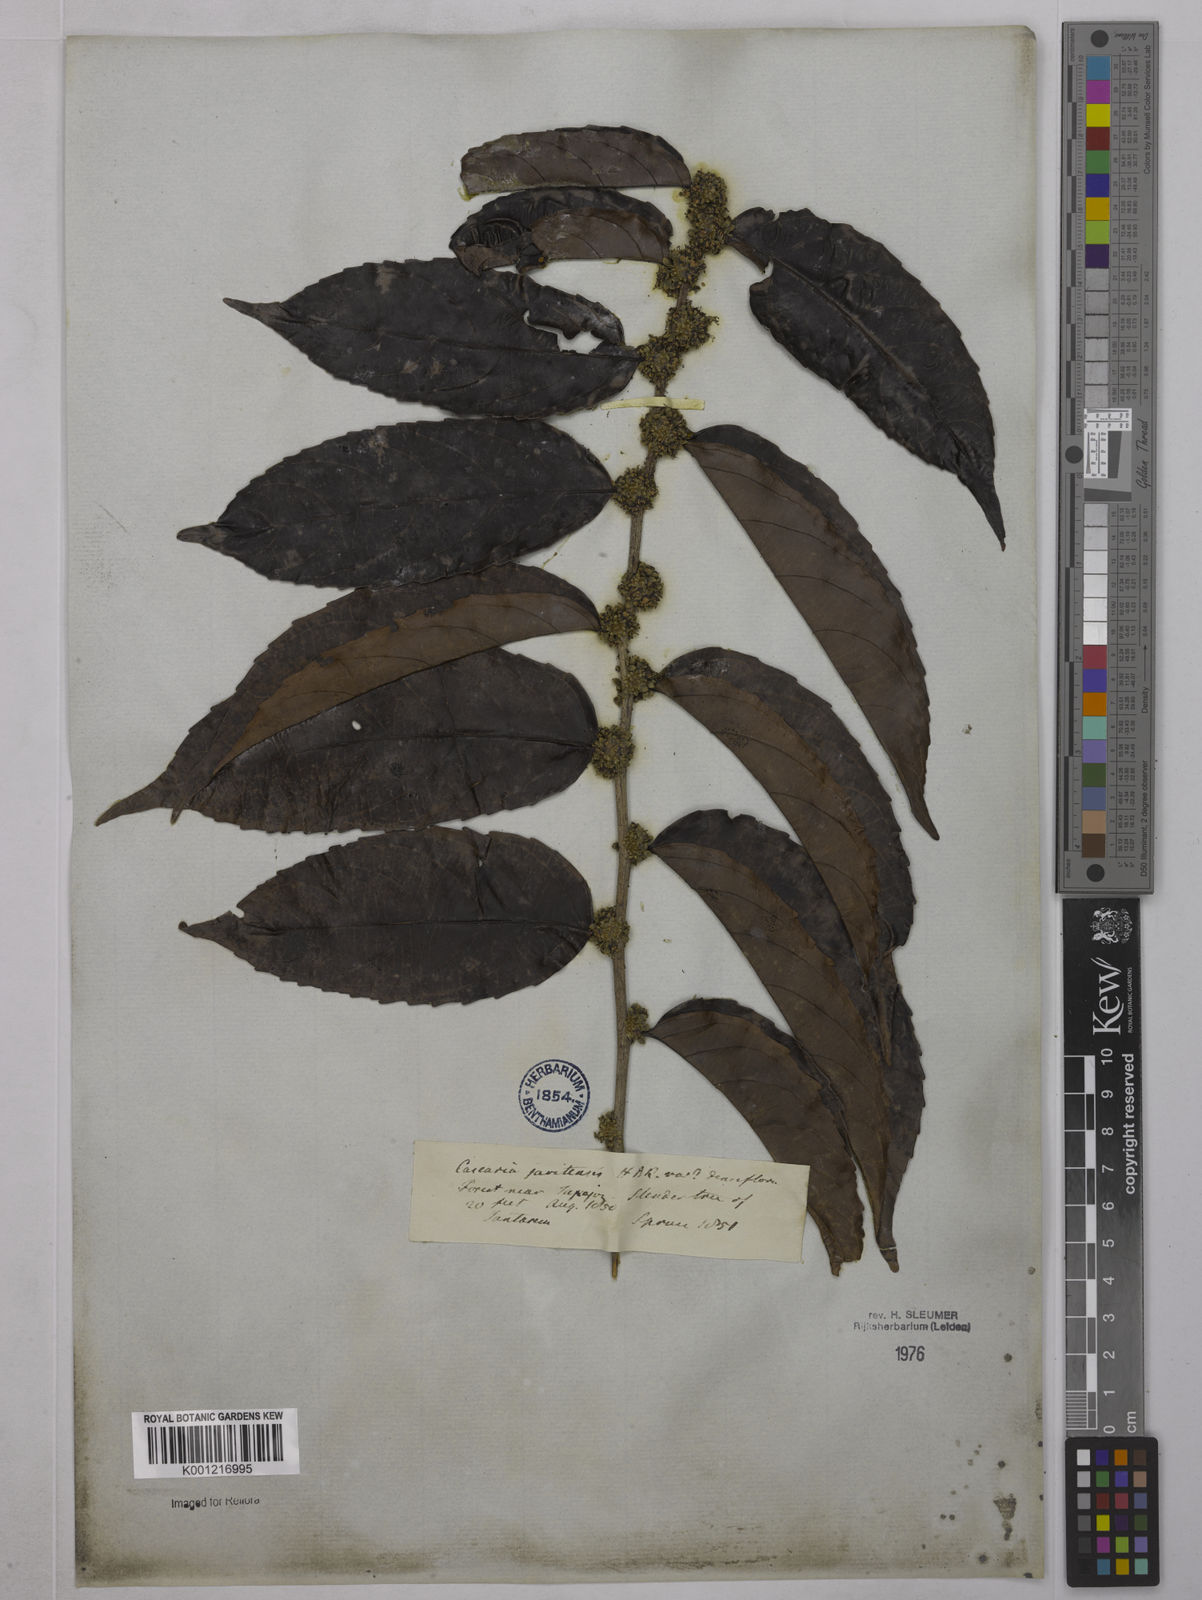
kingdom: Plantae
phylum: Tracheophyta
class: Magnoliopsida
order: Malpighiales
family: Salicaceae
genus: Piparea
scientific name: Piparea multiflora
